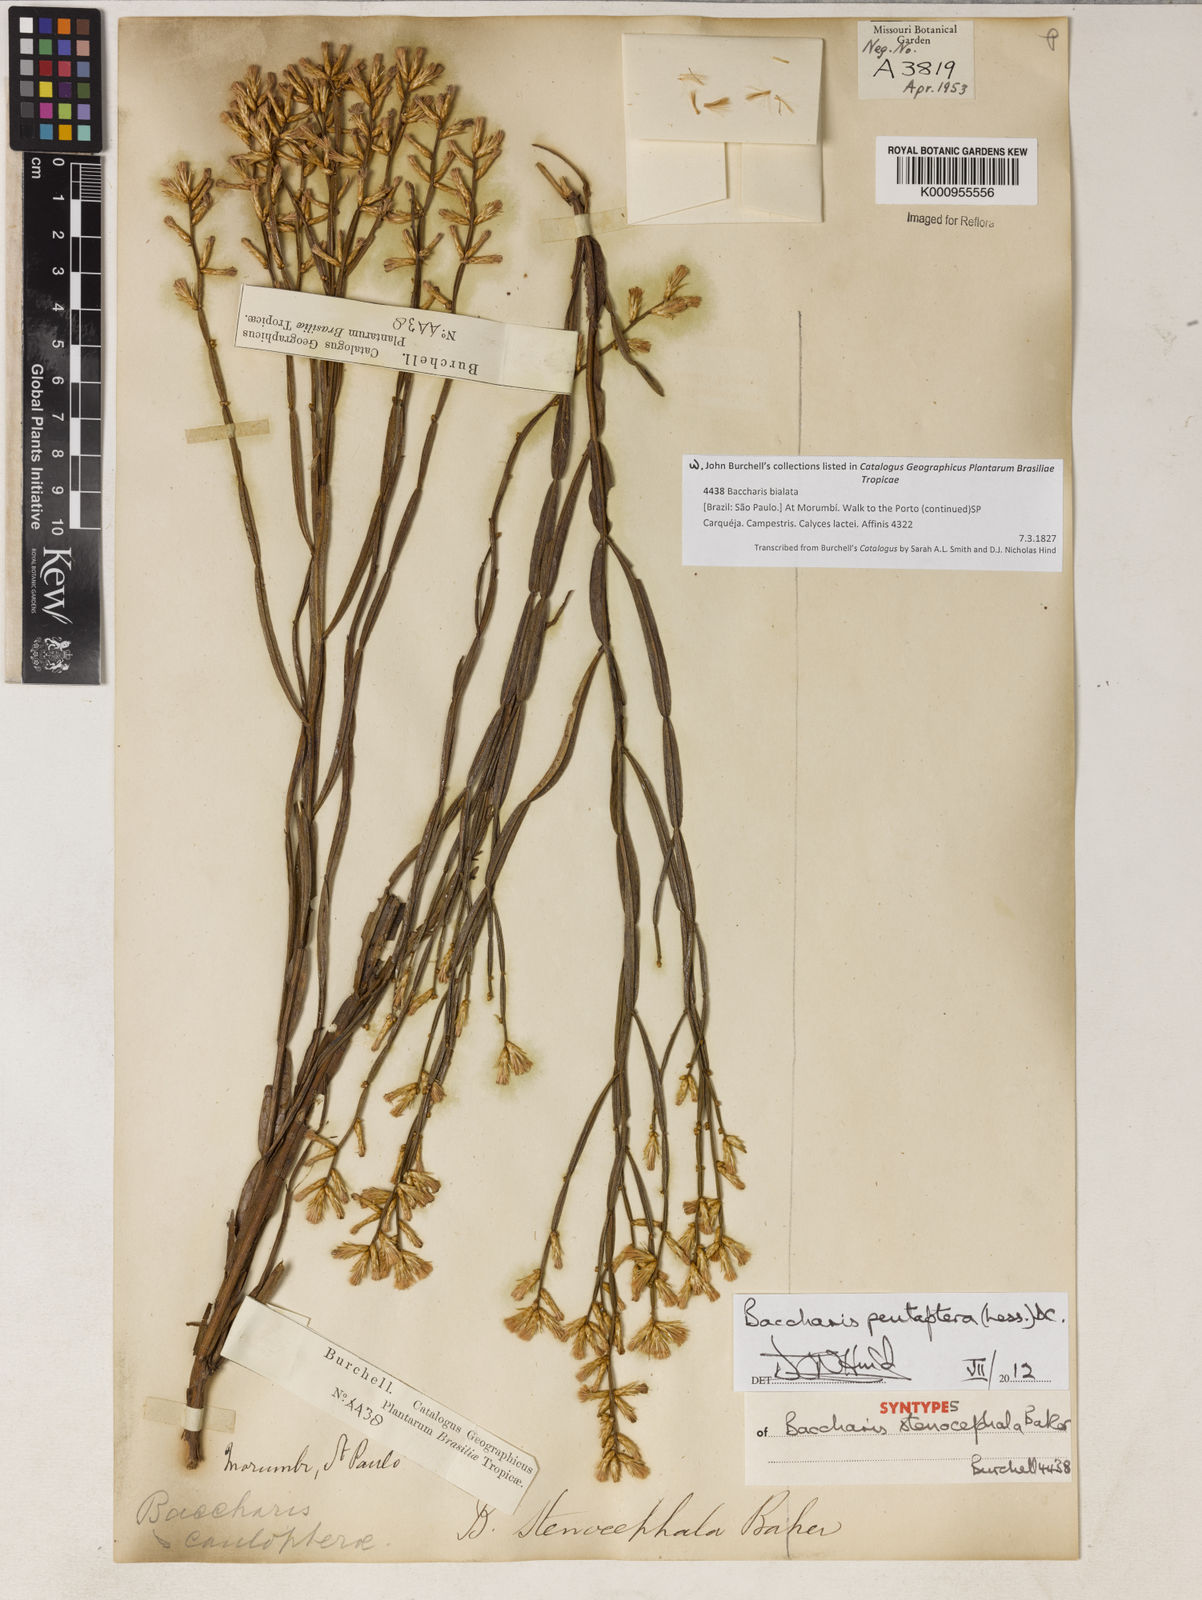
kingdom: Plantae
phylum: Tracheophyta
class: Magnoliopsida
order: Asterales
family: Asteraceae
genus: Baccharis
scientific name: Baccharis pentaptera
